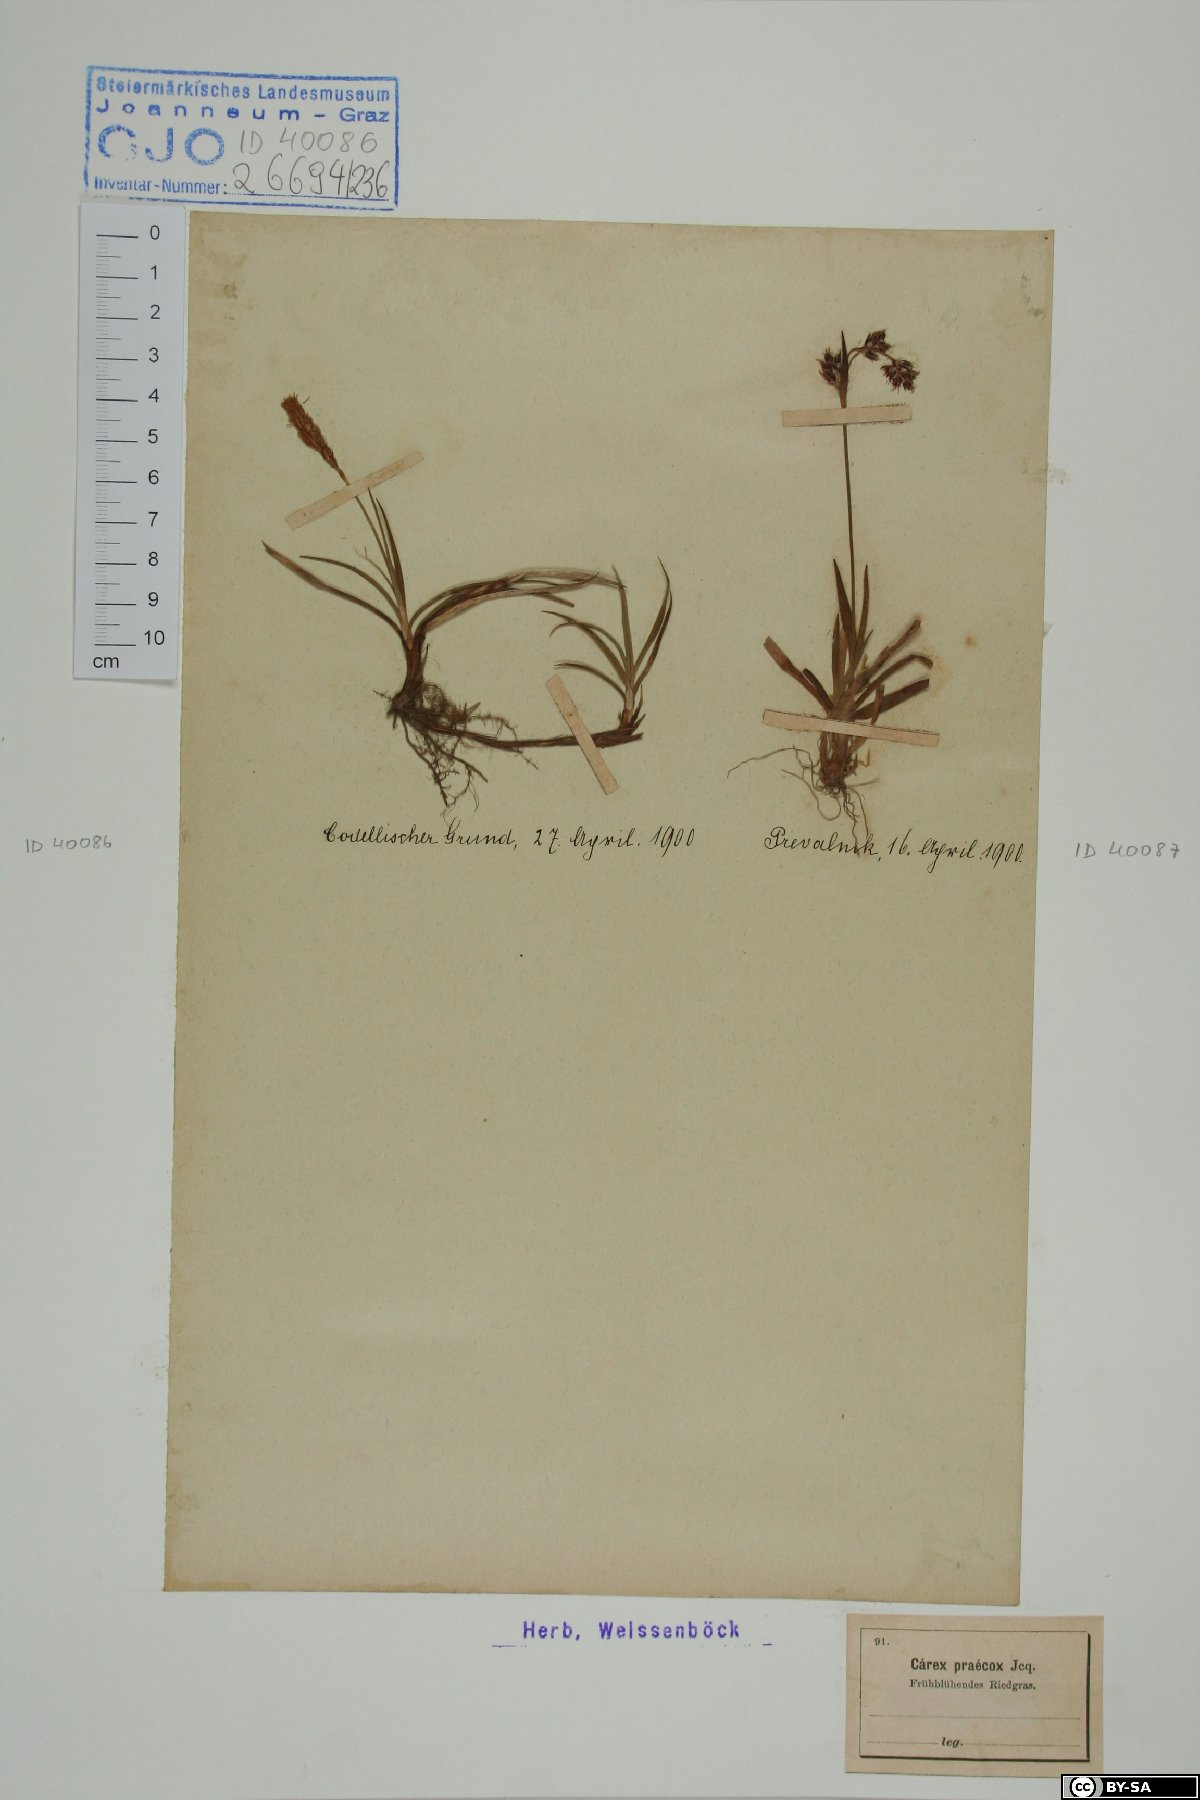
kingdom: Plantae
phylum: Tracheophyta
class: Liliopsida
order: Poales
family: Cyperaceae
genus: Carex
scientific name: Carex praecox
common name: Early sedge
